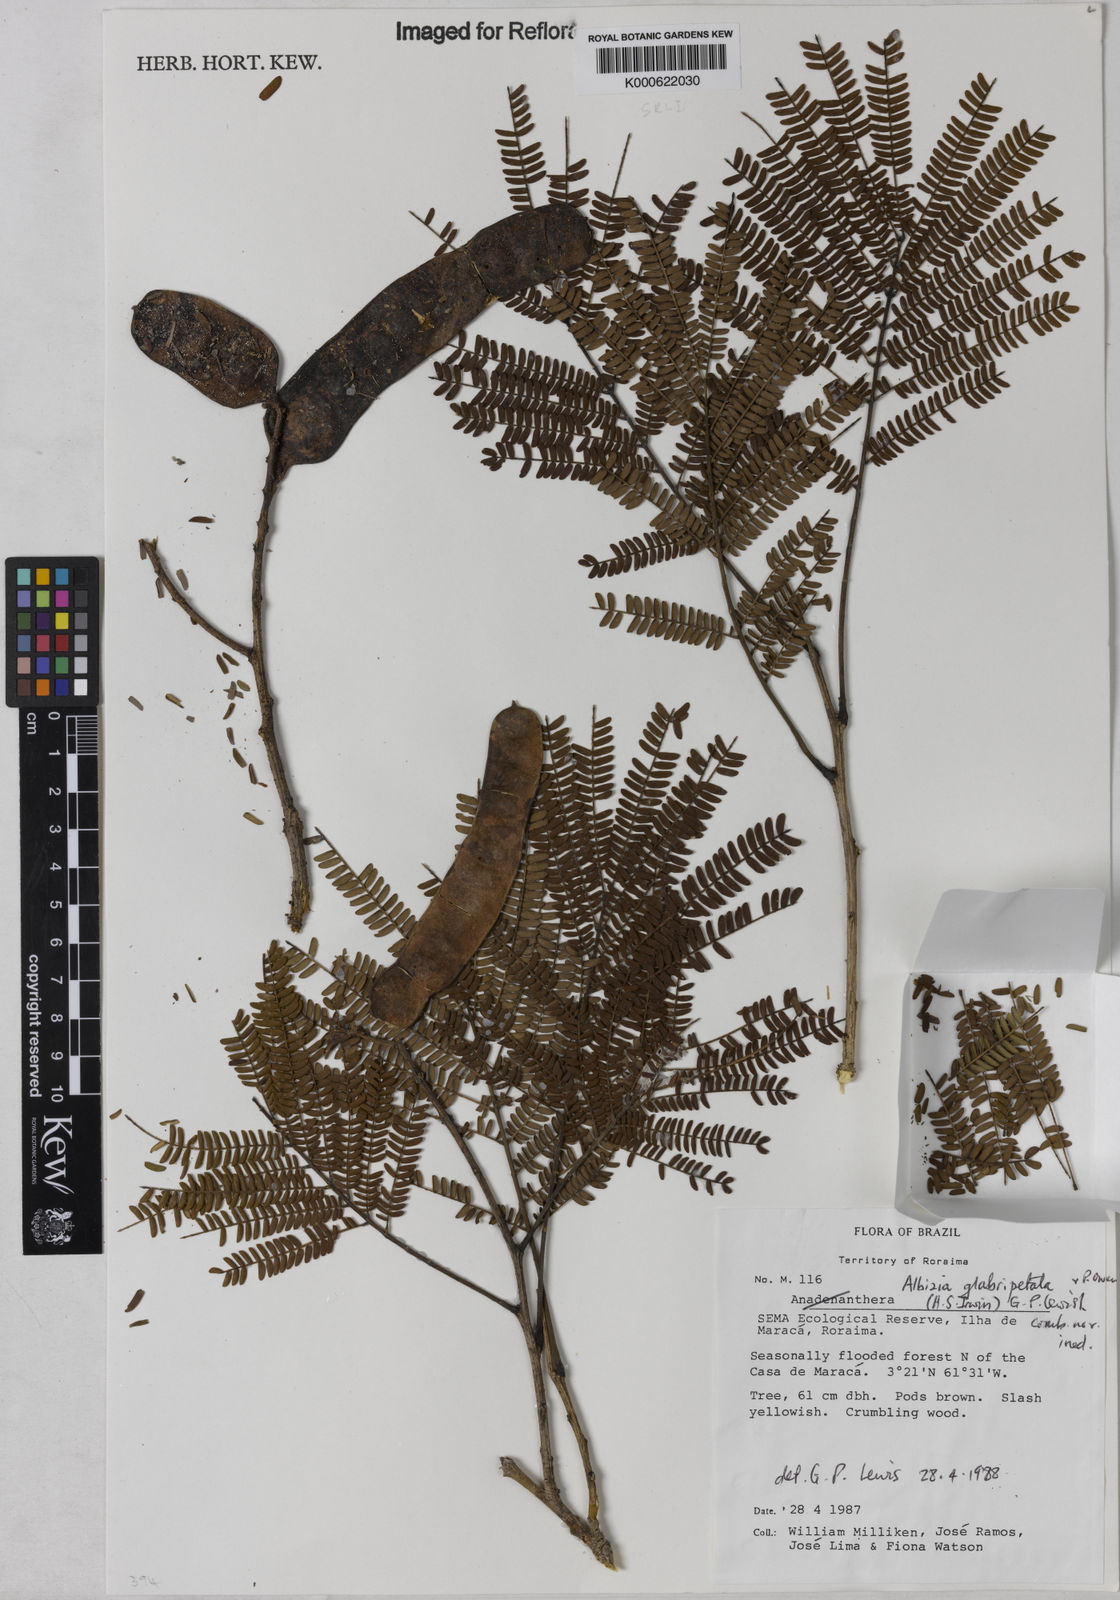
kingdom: Plantae
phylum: Tracheophyta
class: Magnoliopsida
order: Fabales
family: Fabaceae
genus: Albizia
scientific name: Albizia glabripetala
